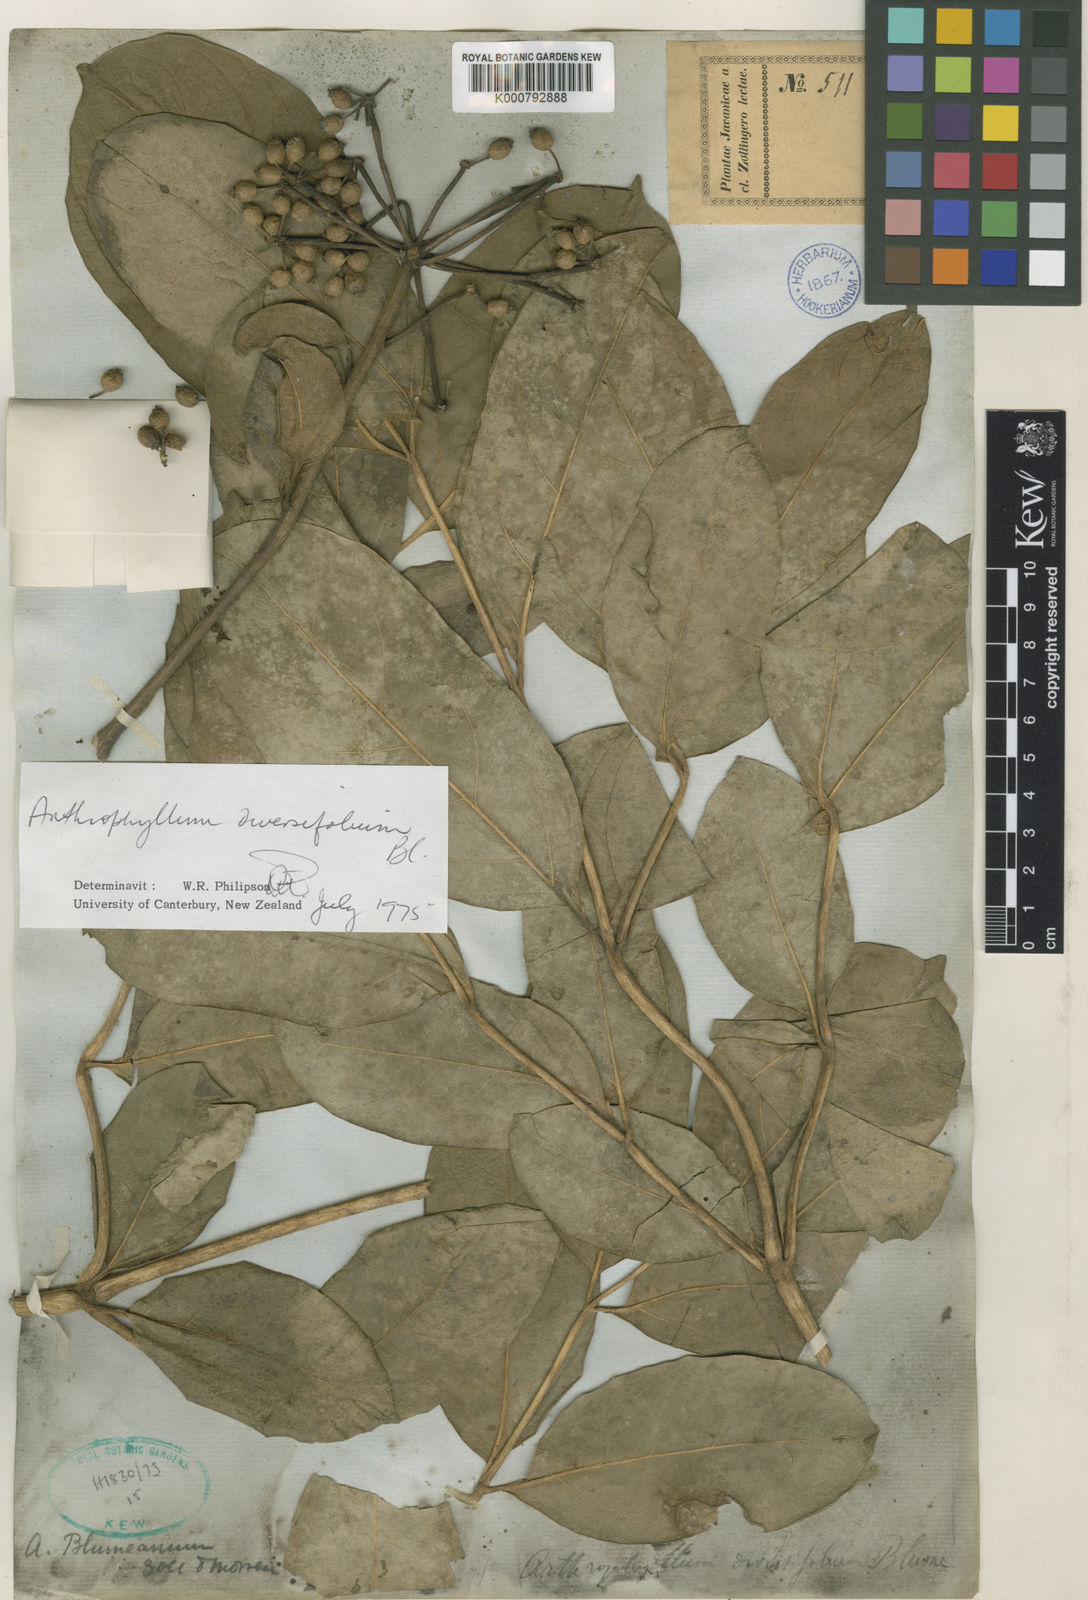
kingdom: Plantae
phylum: Tracheophyta
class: Magnoliopsida
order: Apiales
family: Araliaceae
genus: Polyscias
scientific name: Polyscias diversifolia
